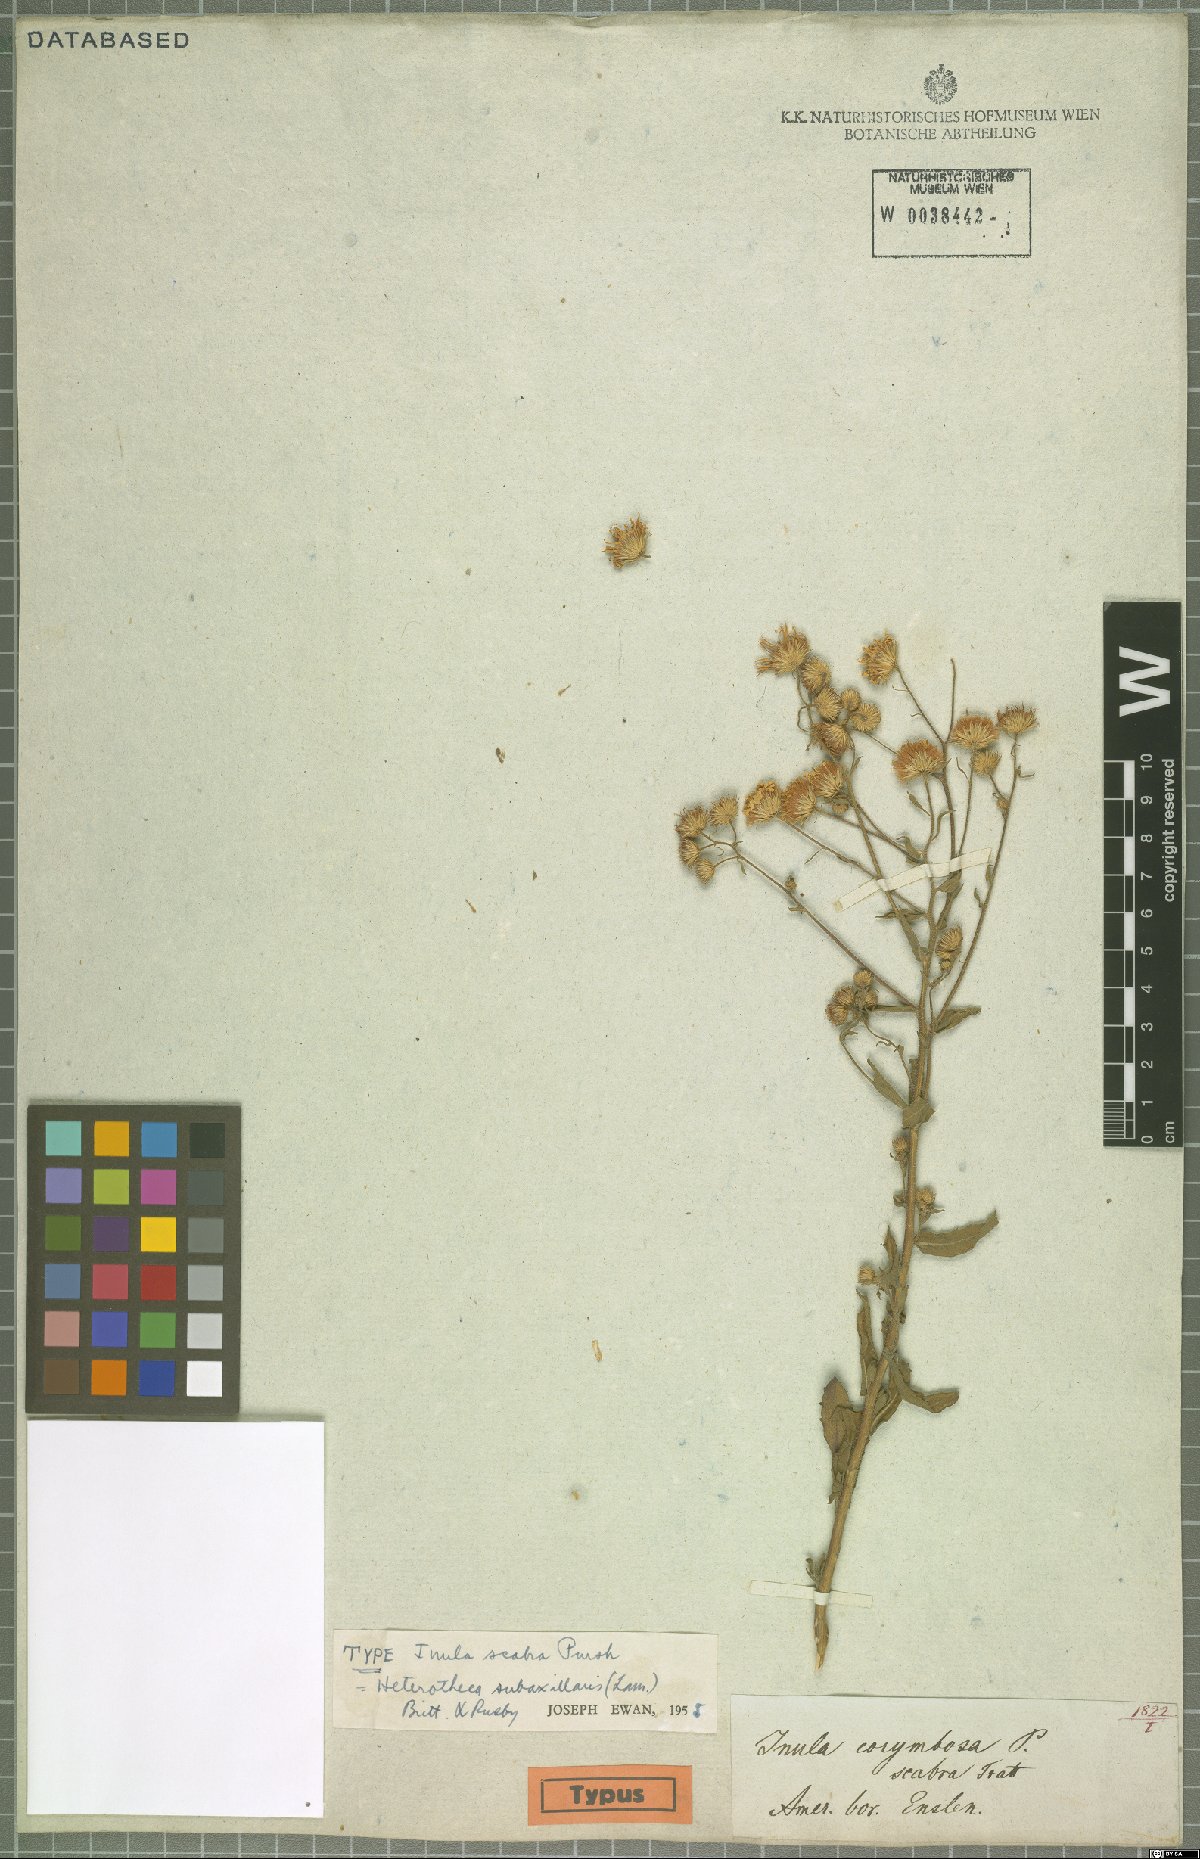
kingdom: Plantae
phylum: Tracheophyta
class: Magnoliopsida
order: Asterales
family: Asteraceae
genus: Heterotheca
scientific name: Heterotheca subaxillaris
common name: Camphorweed
